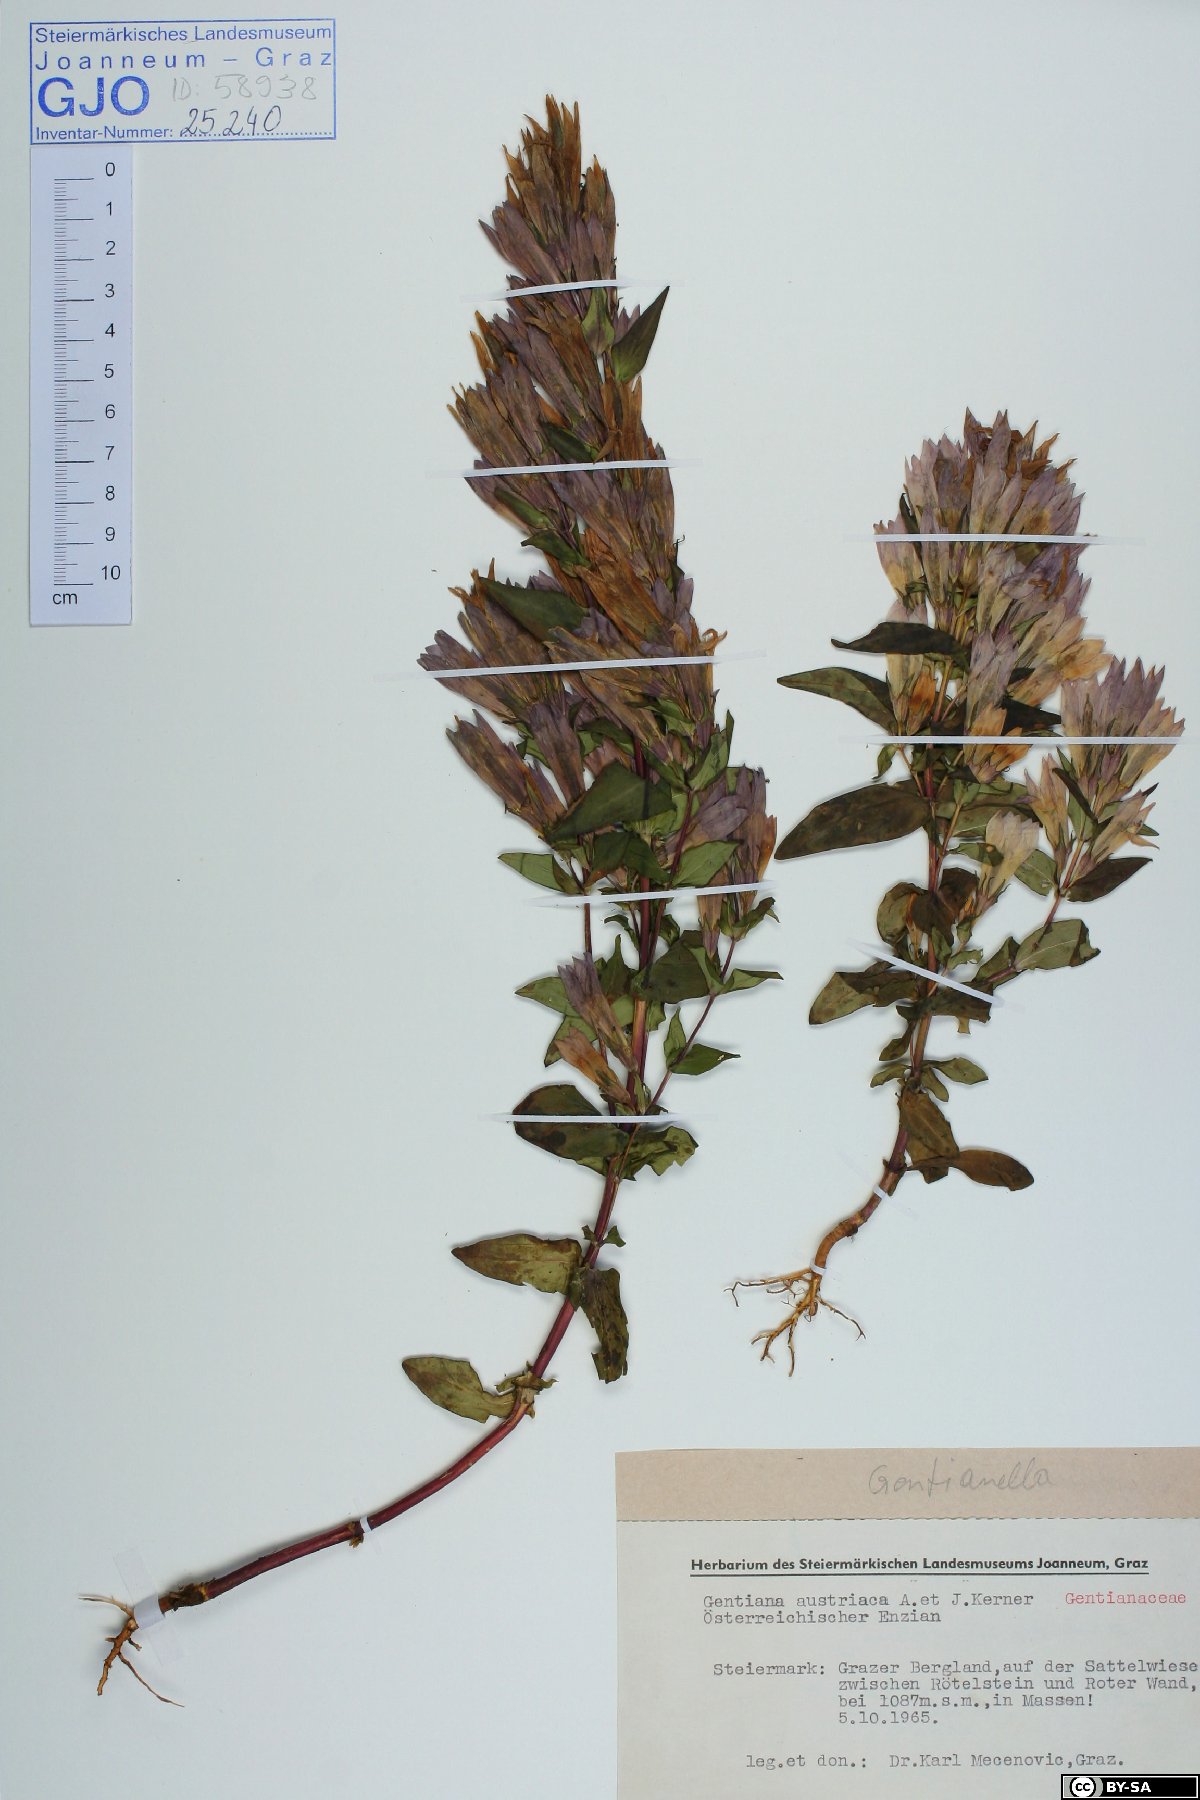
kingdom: Plantae
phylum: Tracheophyta
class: Magnoliopsida
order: Gentianales
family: Gentianaceae
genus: Gentianella
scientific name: Gentianella austriaca
